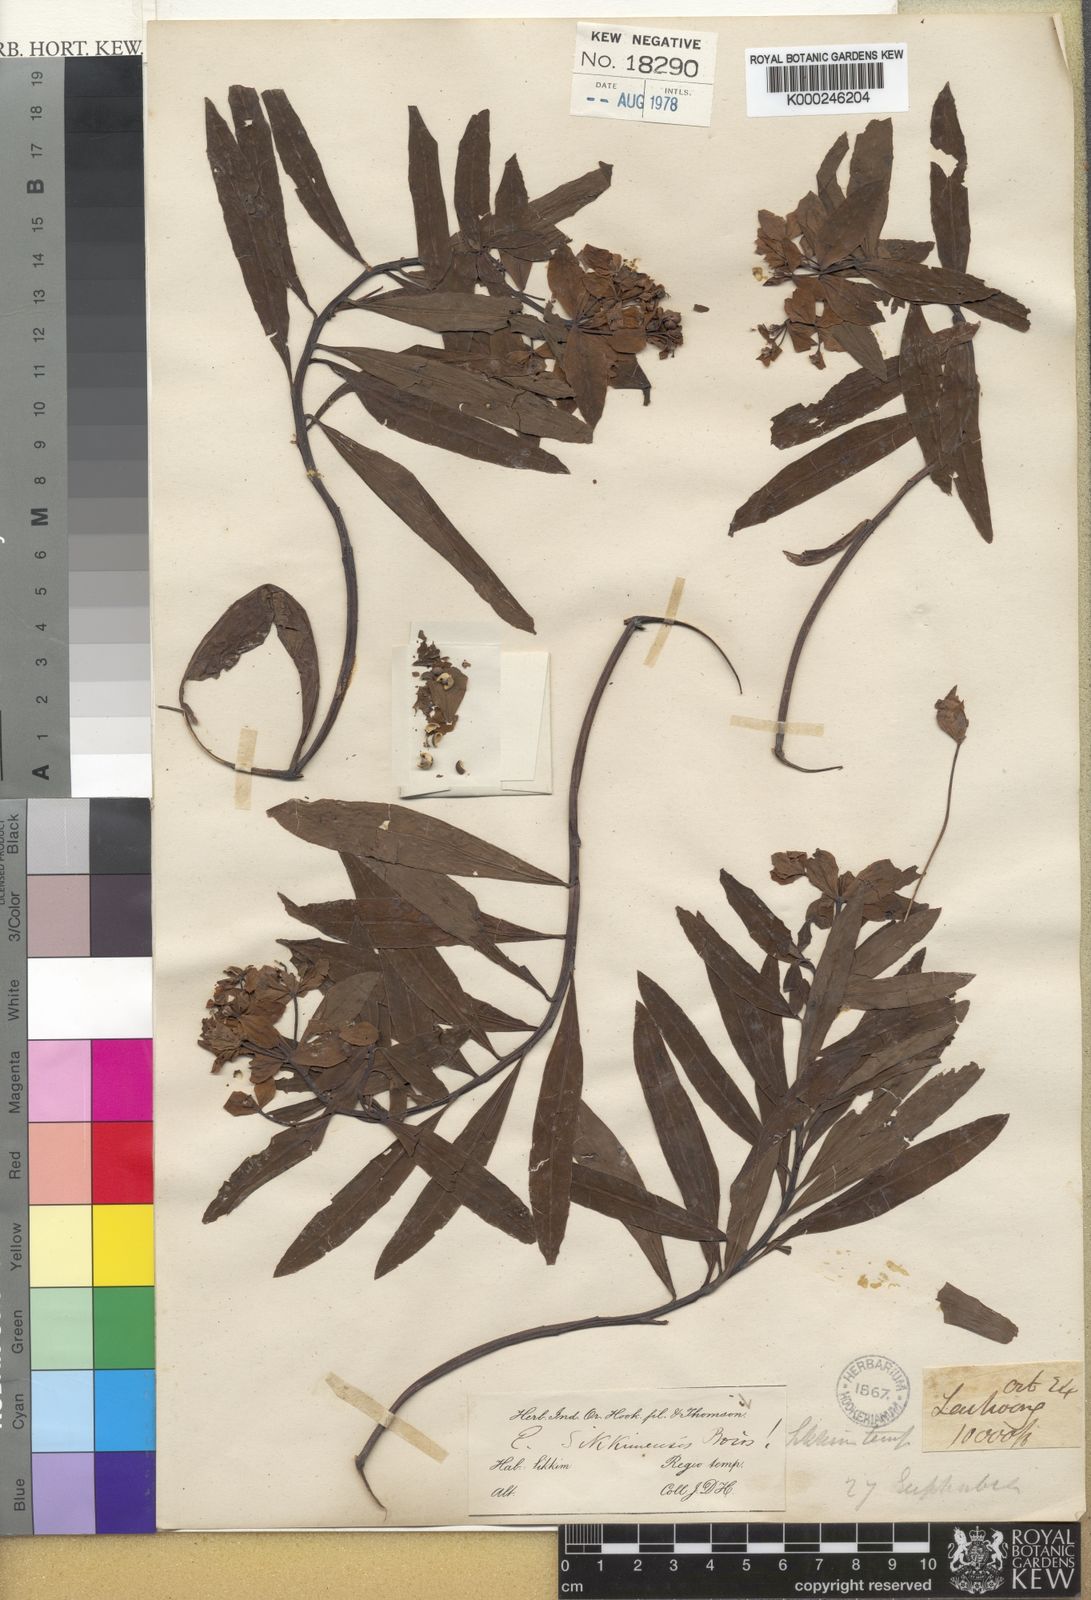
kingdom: Plantae
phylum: Tracheophyta
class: Magnoliopsida
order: Malpighiales
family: Euphorbiaceae
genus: Euphorbia
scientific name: Euphorbia sikkimensis
